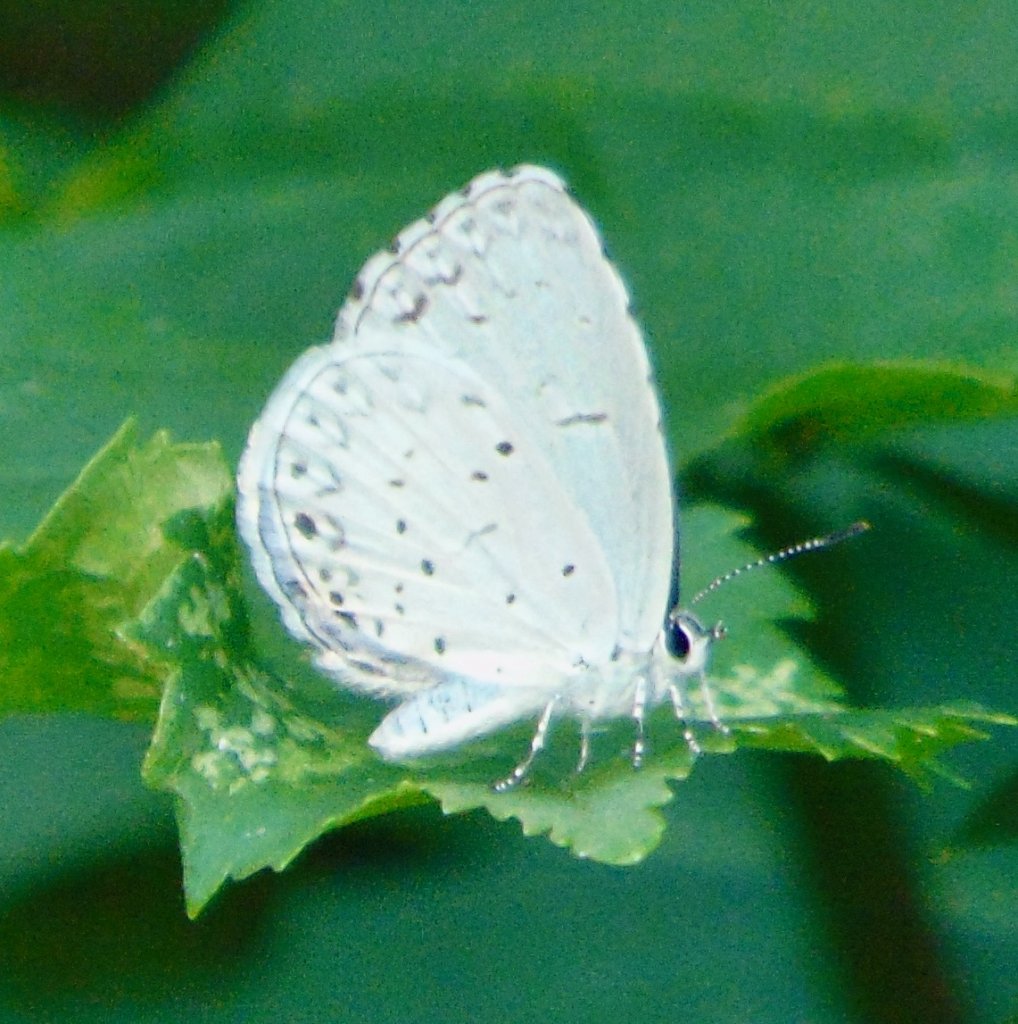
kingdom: Animalia
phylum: Arthropoda
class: Insecta
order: Lepidoptera
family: Lycaenidae
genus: Cyaniris
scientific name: Cyaniris neglecta
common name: Summer Azure
